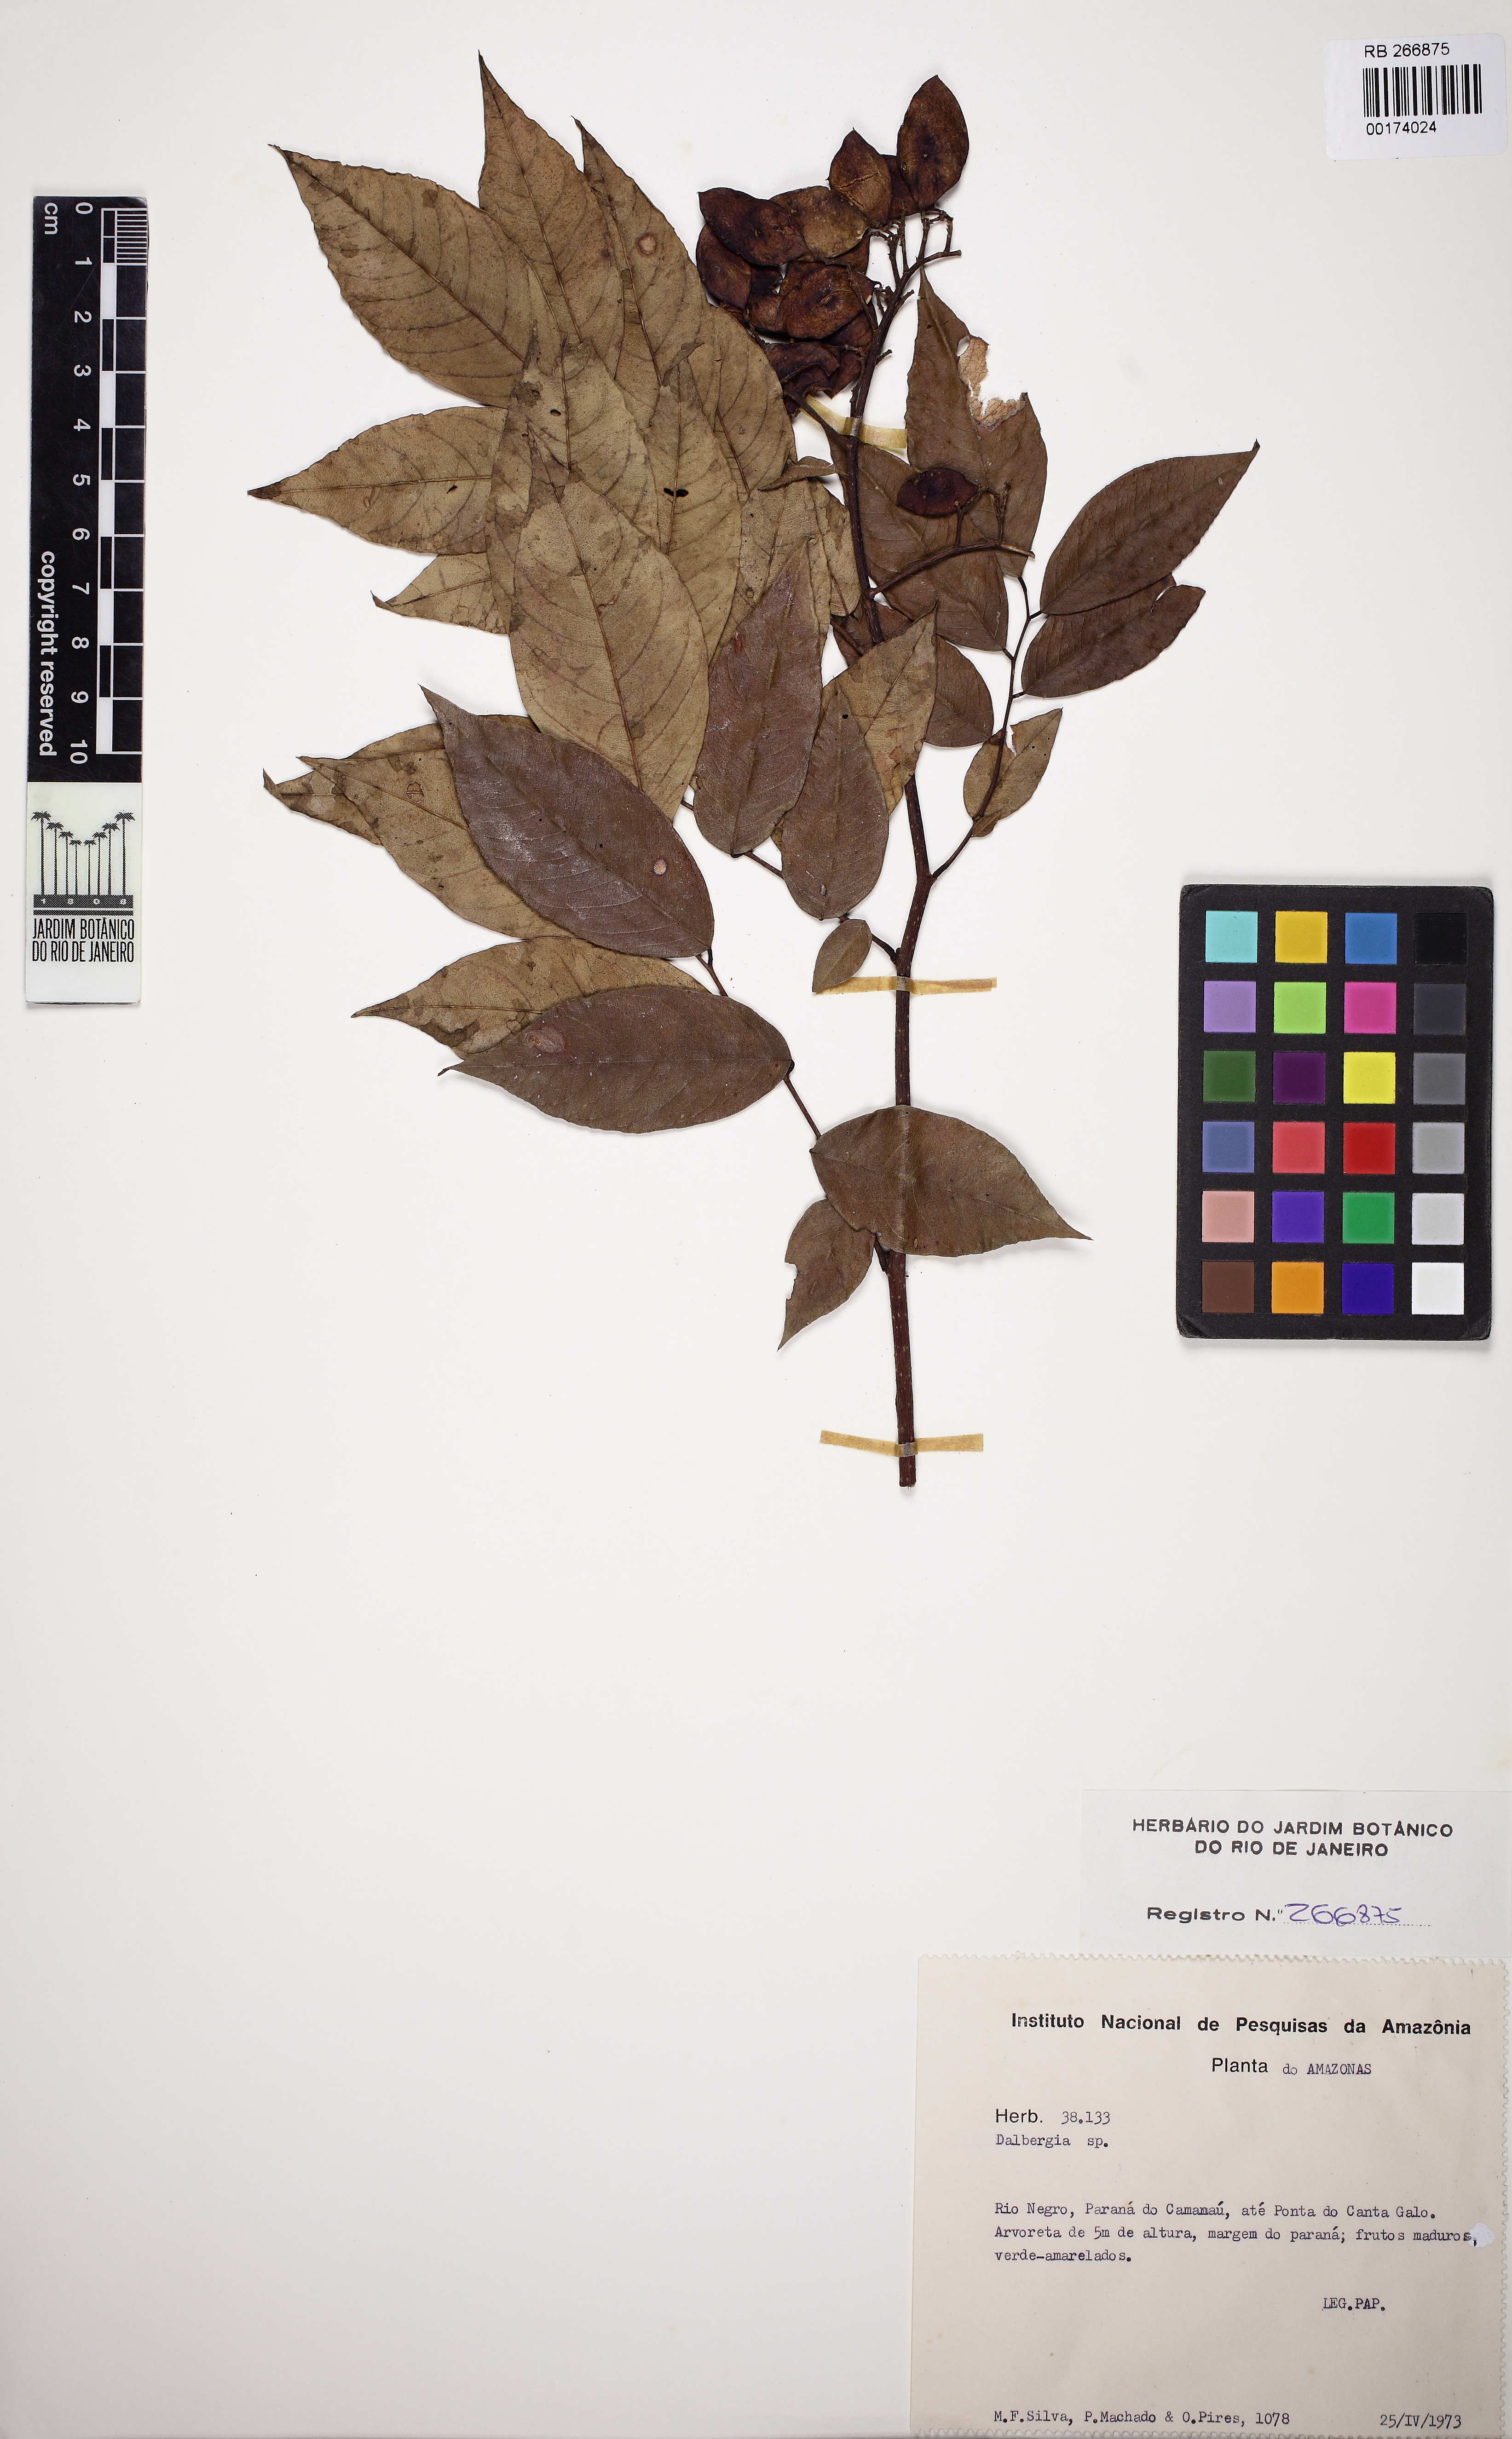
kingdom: Plantae
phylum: Tracheophyta
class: Magnoliopsida
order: Fabales
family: Fabaceae
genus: Dalbergia
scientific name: Dalbergia
